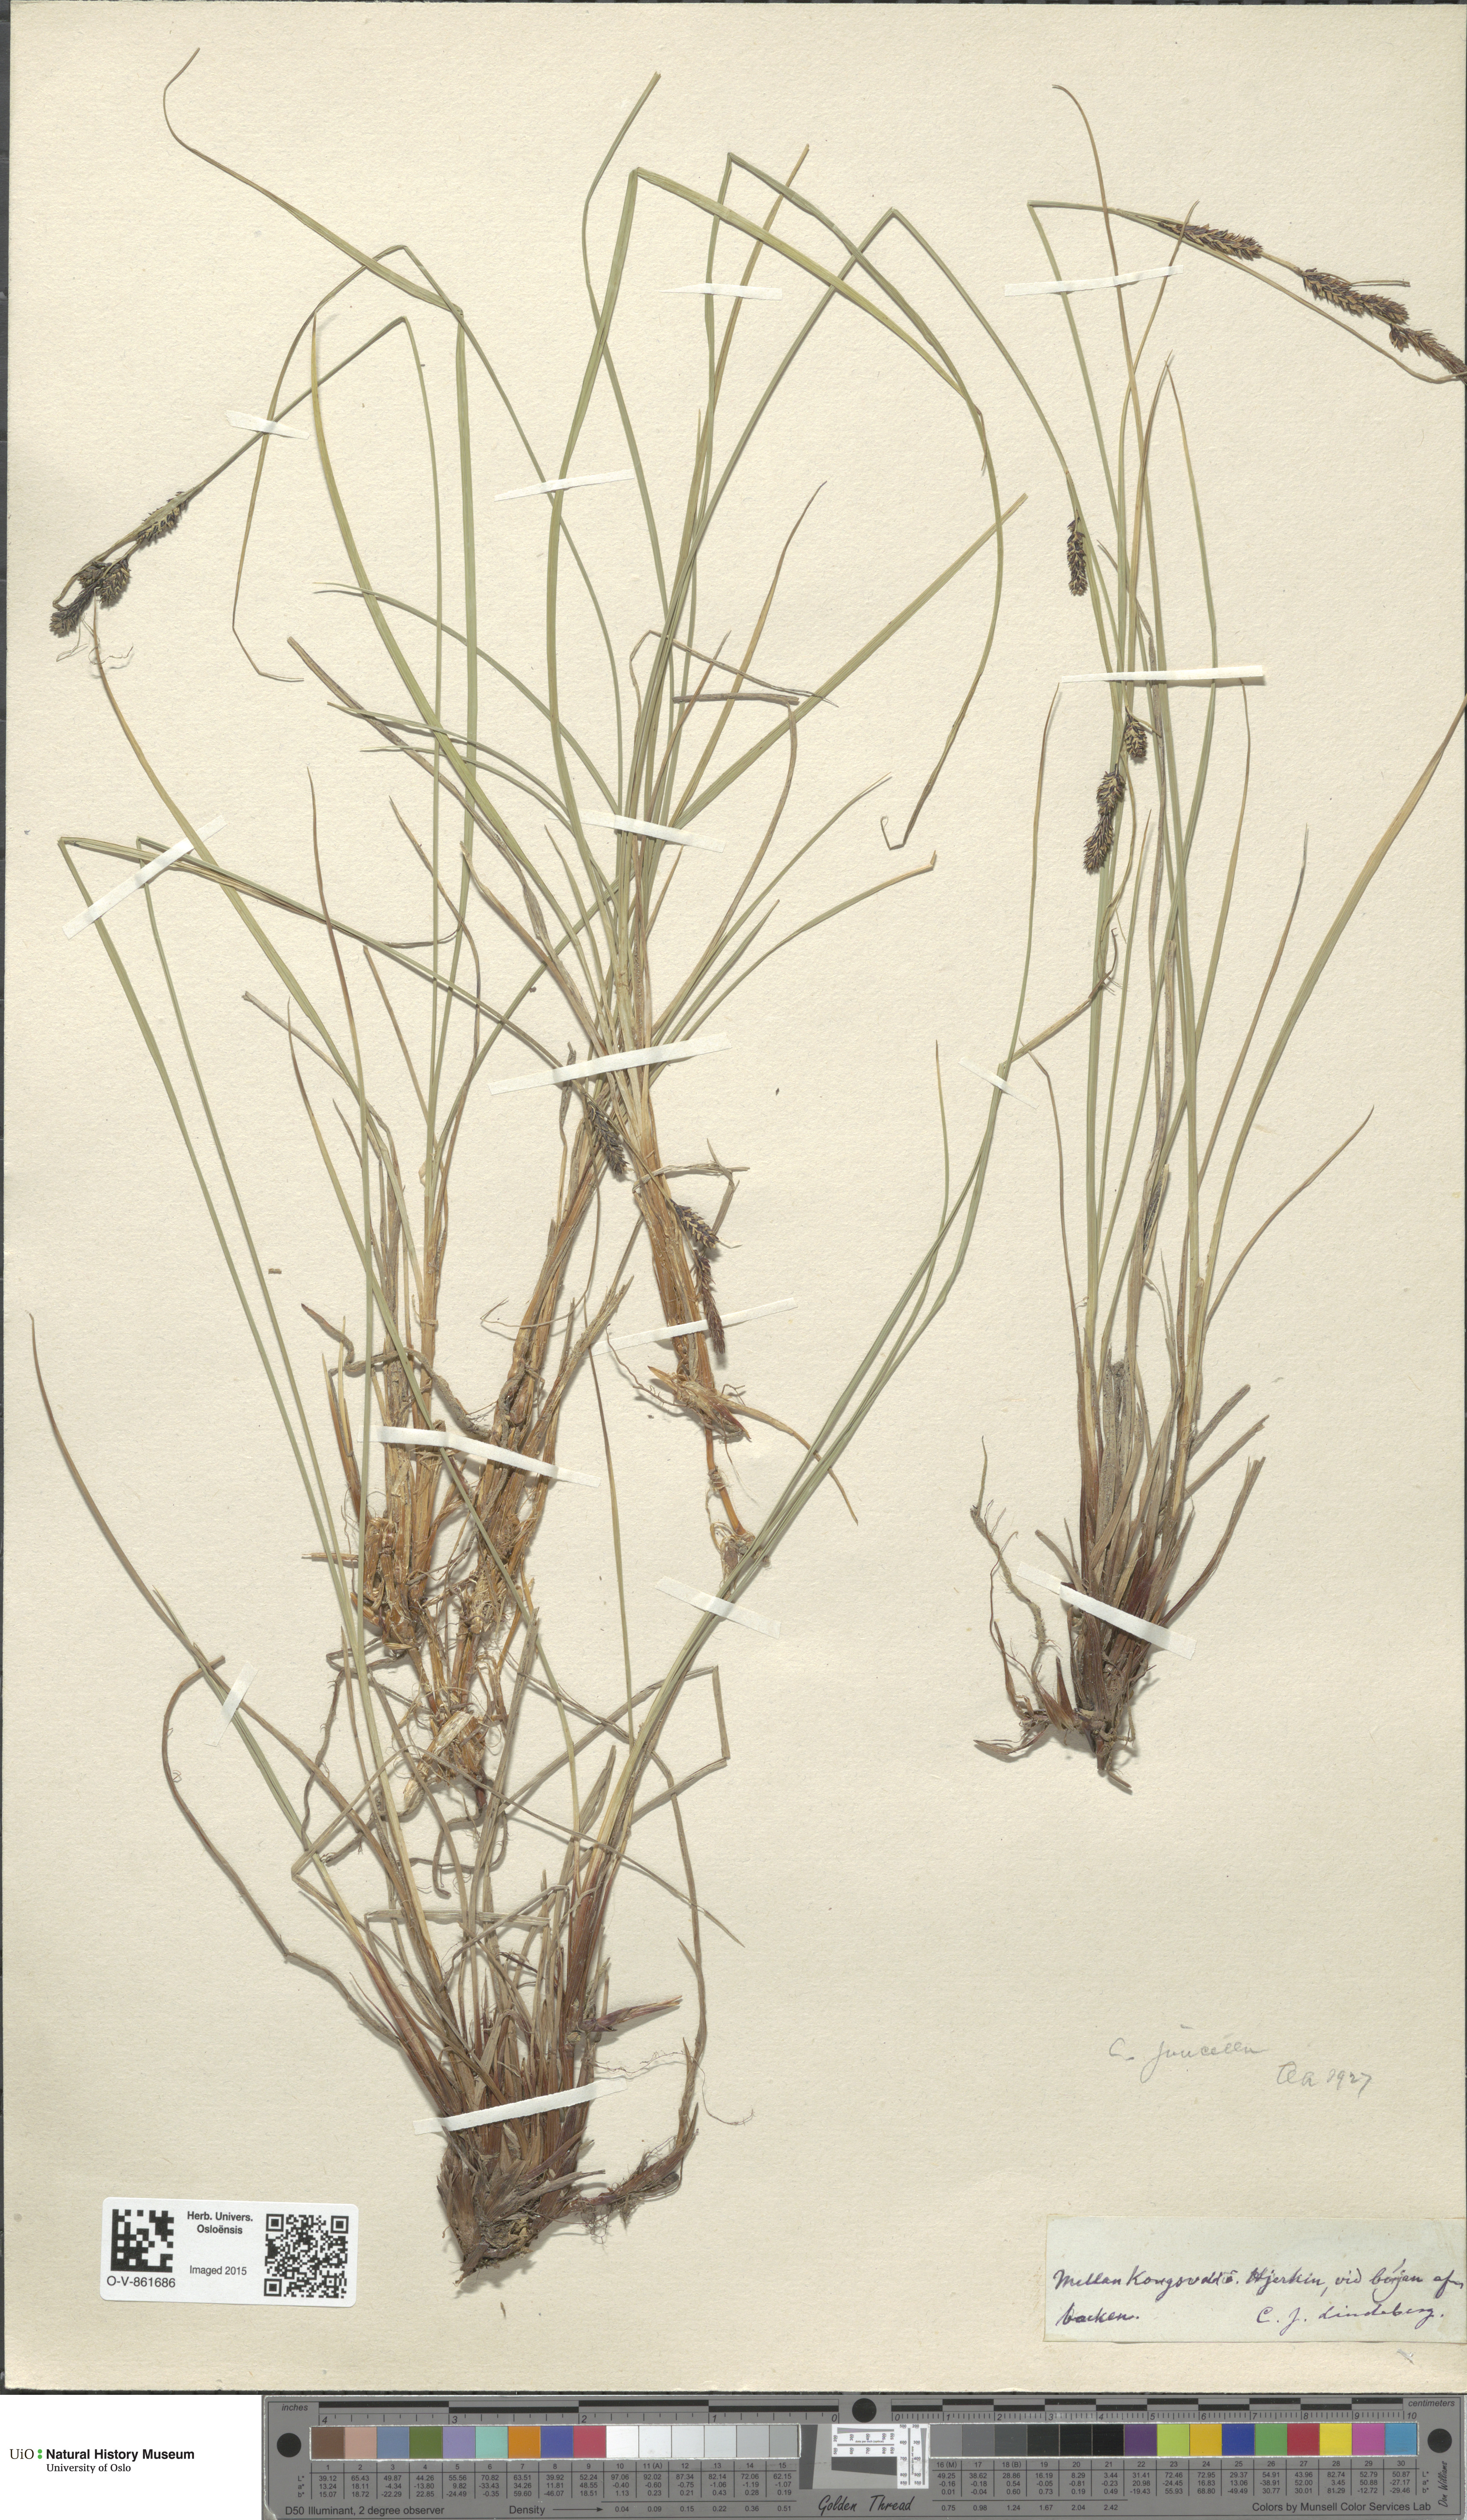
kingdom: Plantae
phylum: Tracheophyta
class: Liliopsida
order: Poales
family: Cyperaceae
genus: Carex
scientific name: Carex nigra
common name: Common sedge
